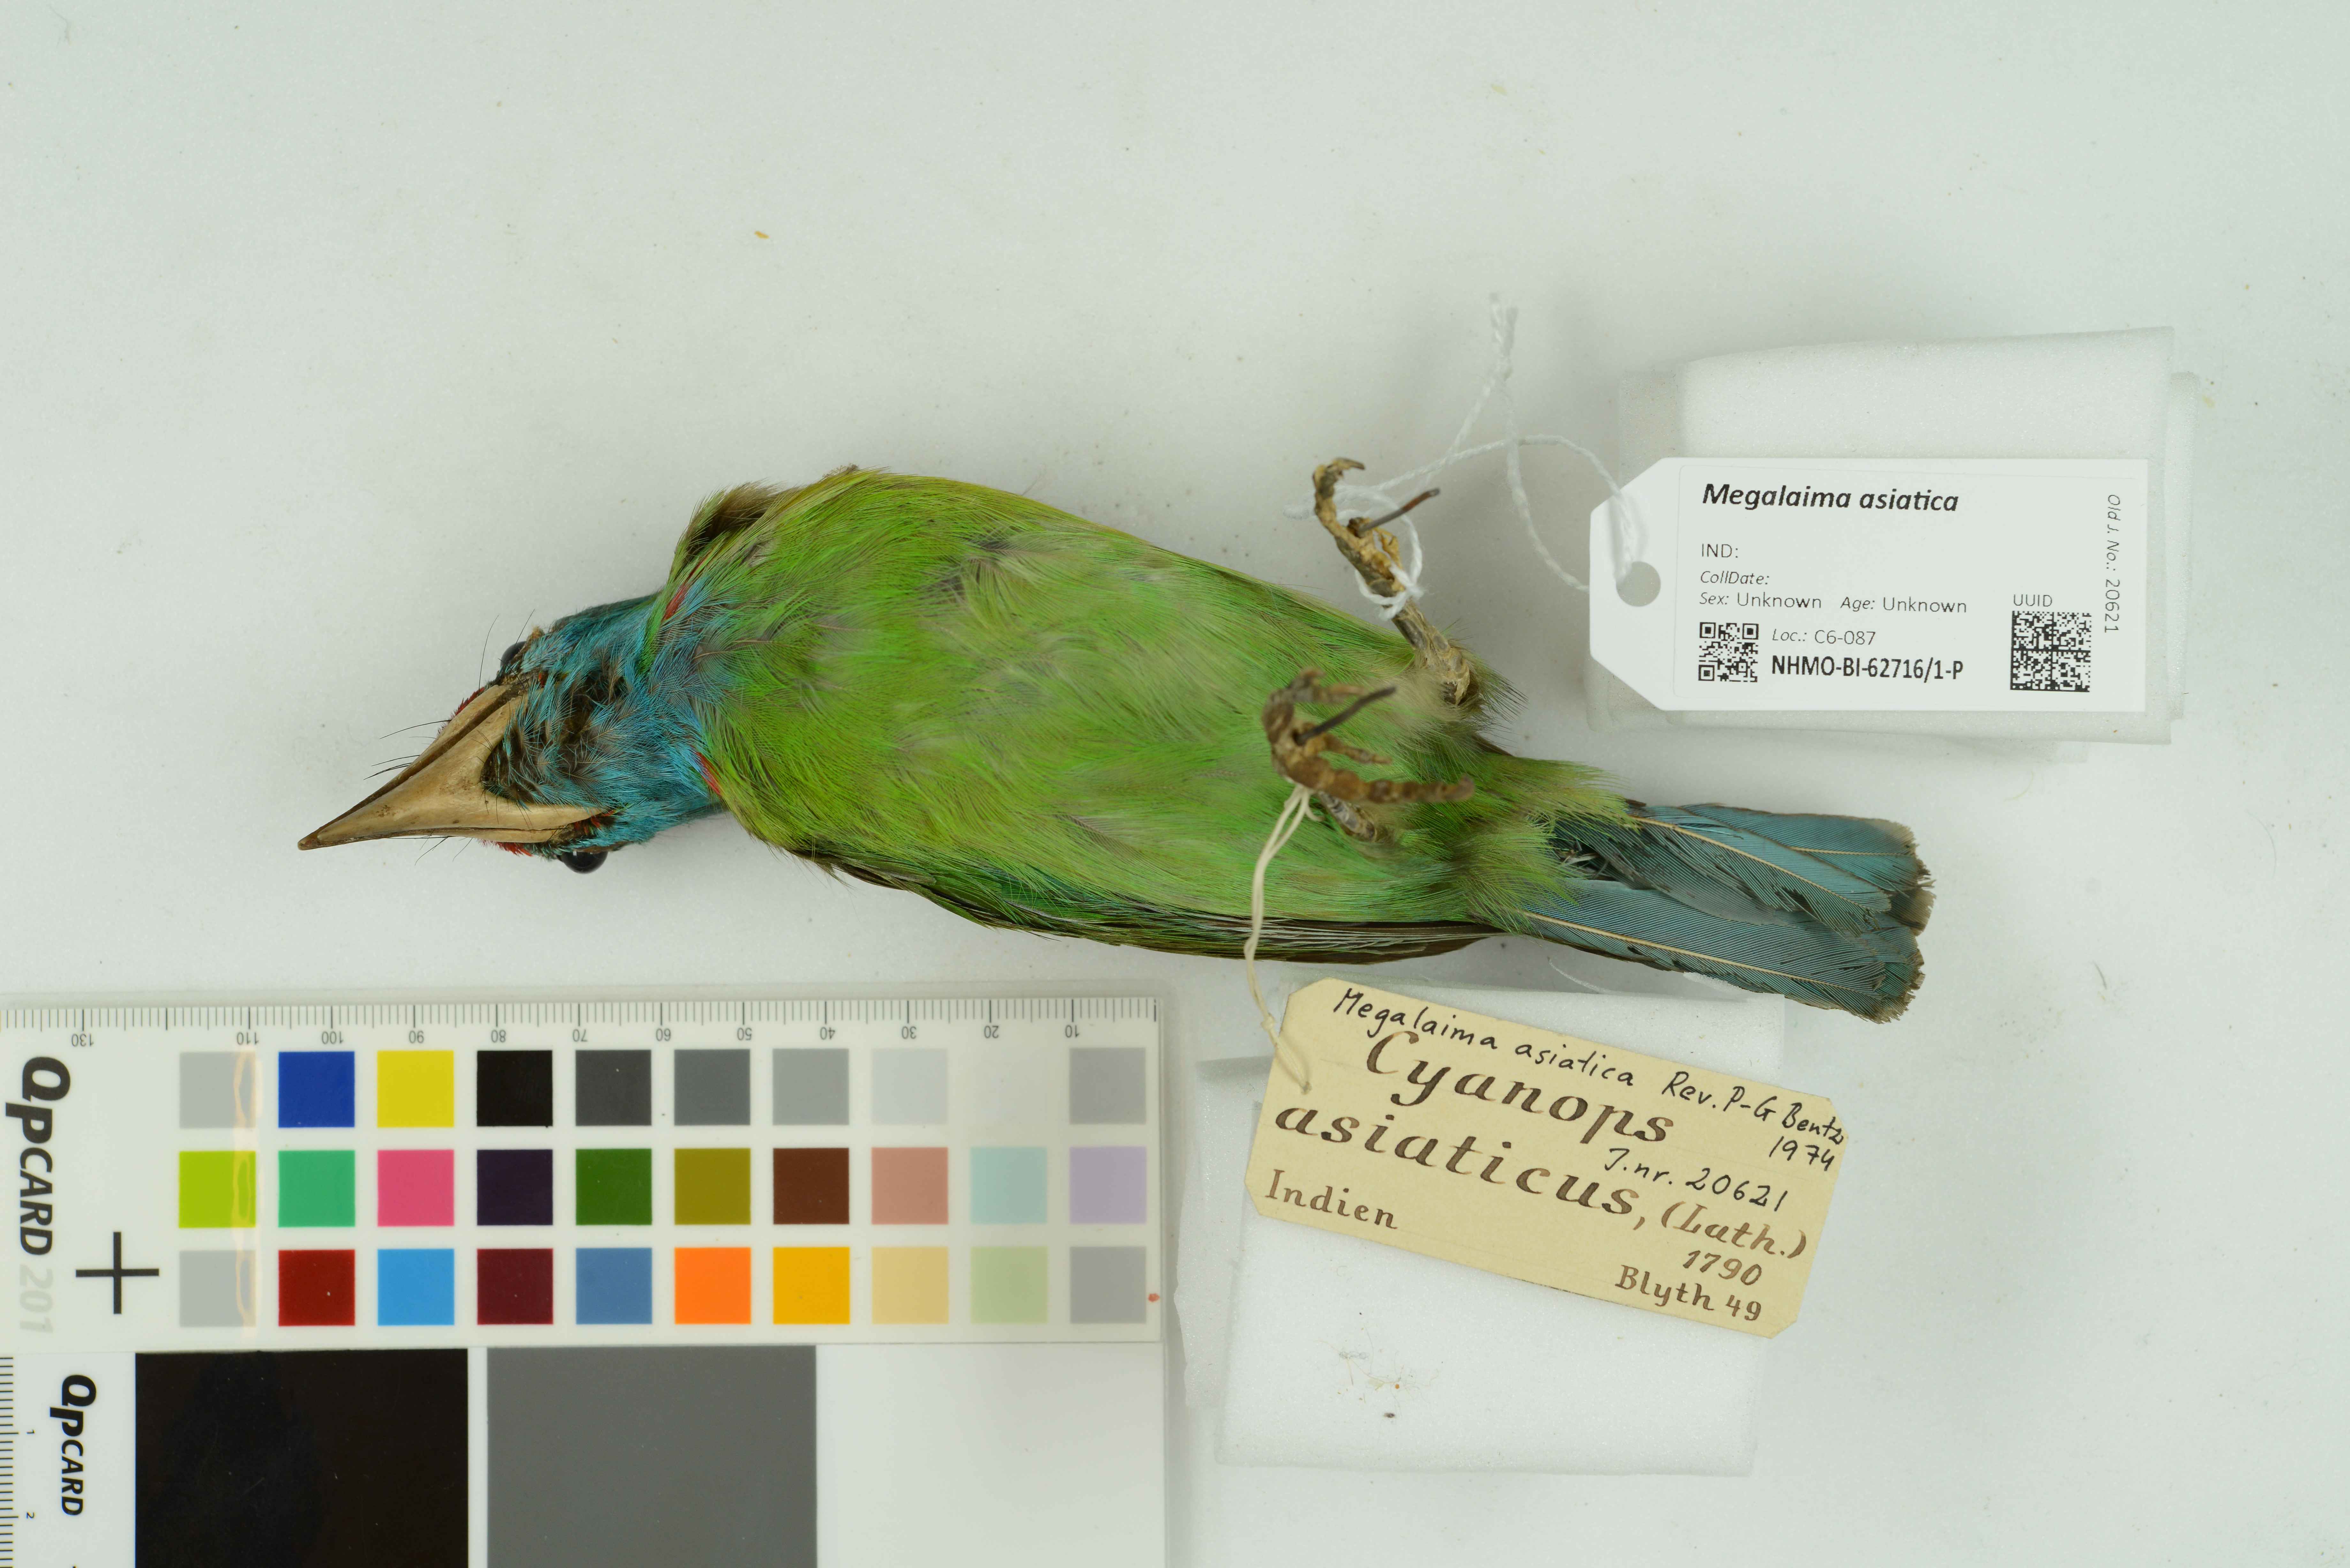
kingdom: Animalia
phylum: Chordata
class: Aves
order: Piciformes
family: Megalaimidae
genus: Psilopogon
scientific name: Psilopogon asiaticus
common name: Blue-throated barbet
